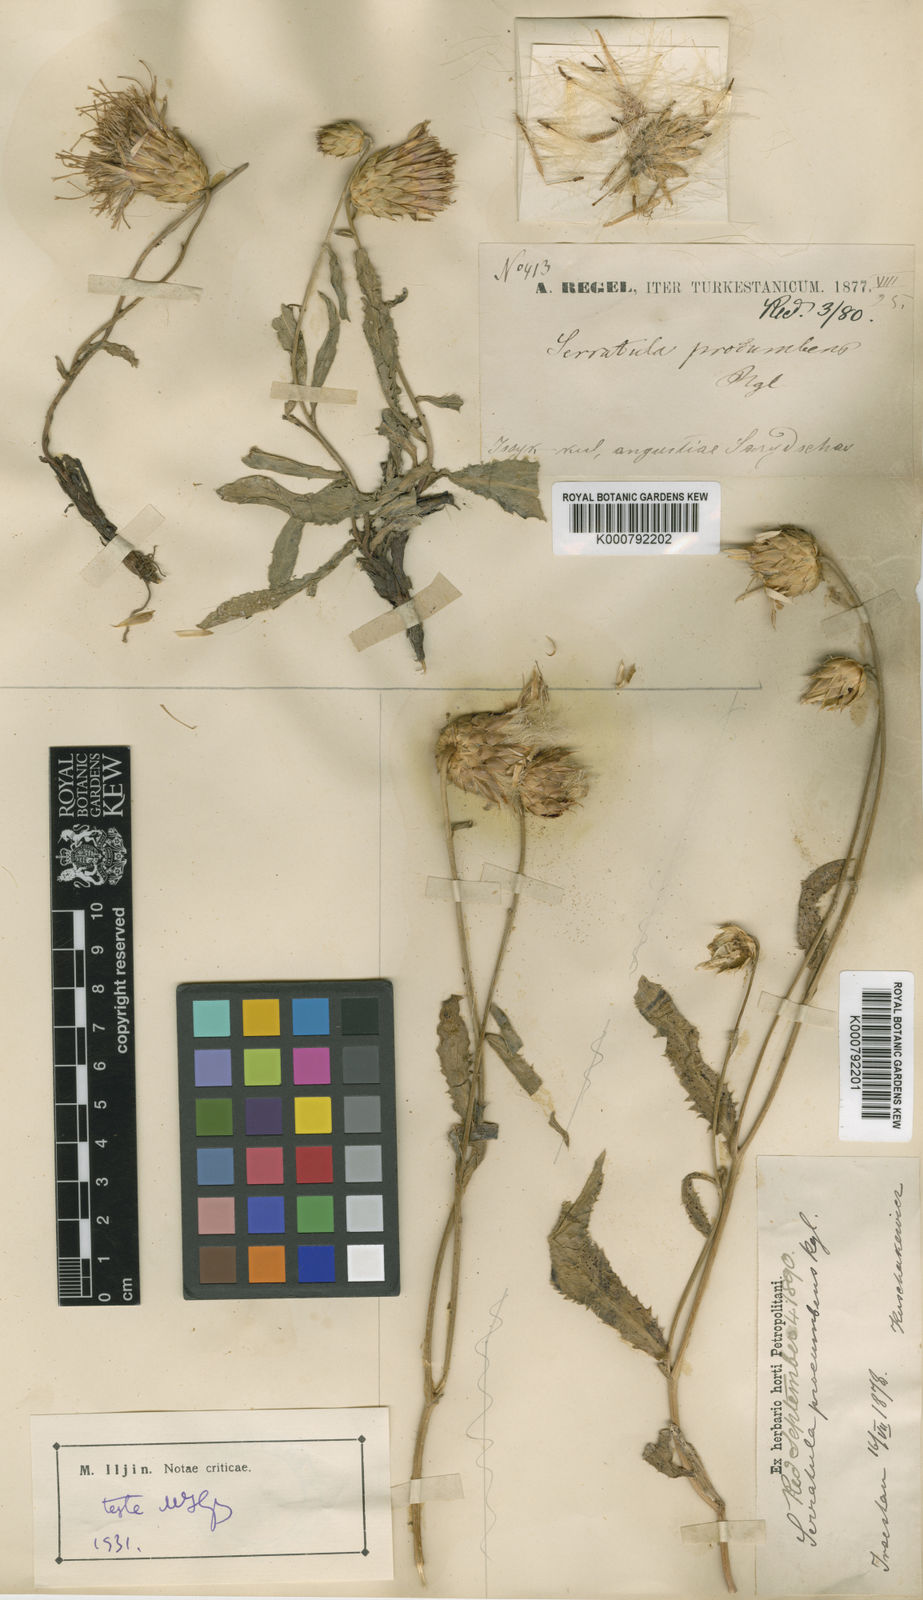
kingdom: Plantae
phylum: Tracheophyta
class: Magnoliopsida
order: Asterales
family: Asteraceae
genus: Klasea
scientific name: Klasea procumbens
